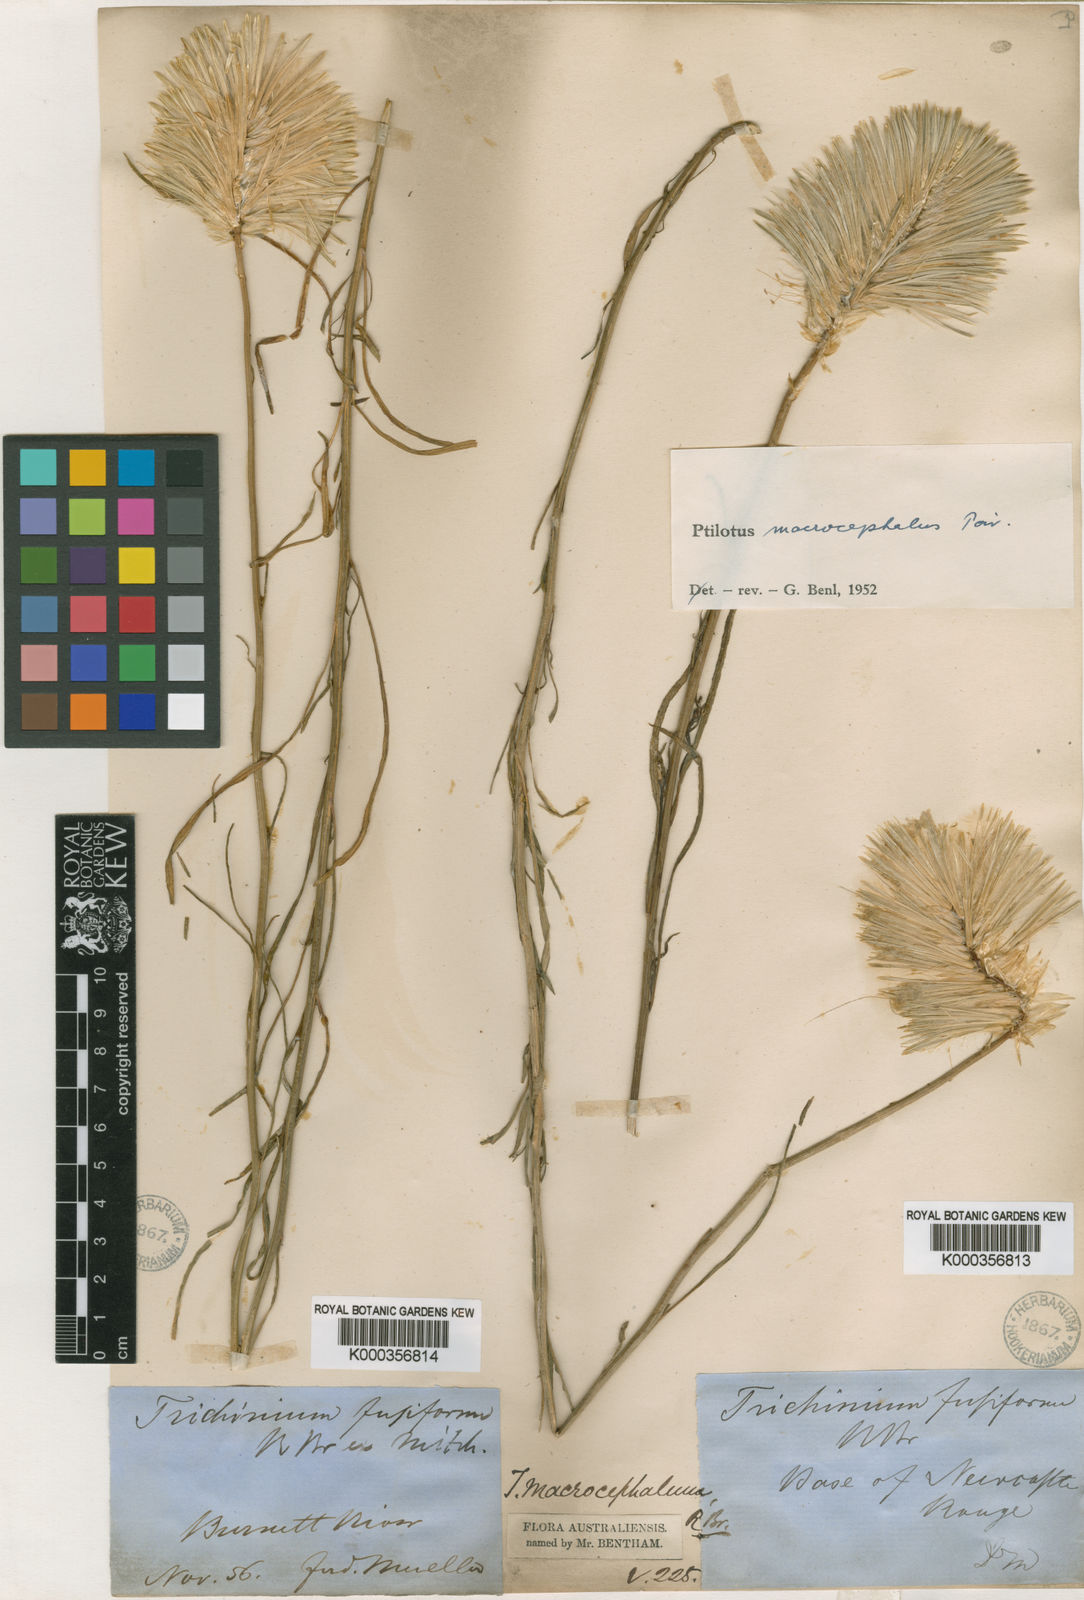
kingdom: Plantae
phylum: Tracheophyta
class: Magnoliopsida
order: Caryophyllales
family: Amaranthaceae
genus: Ptilotus
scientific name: Ptilotus macrocephalus
